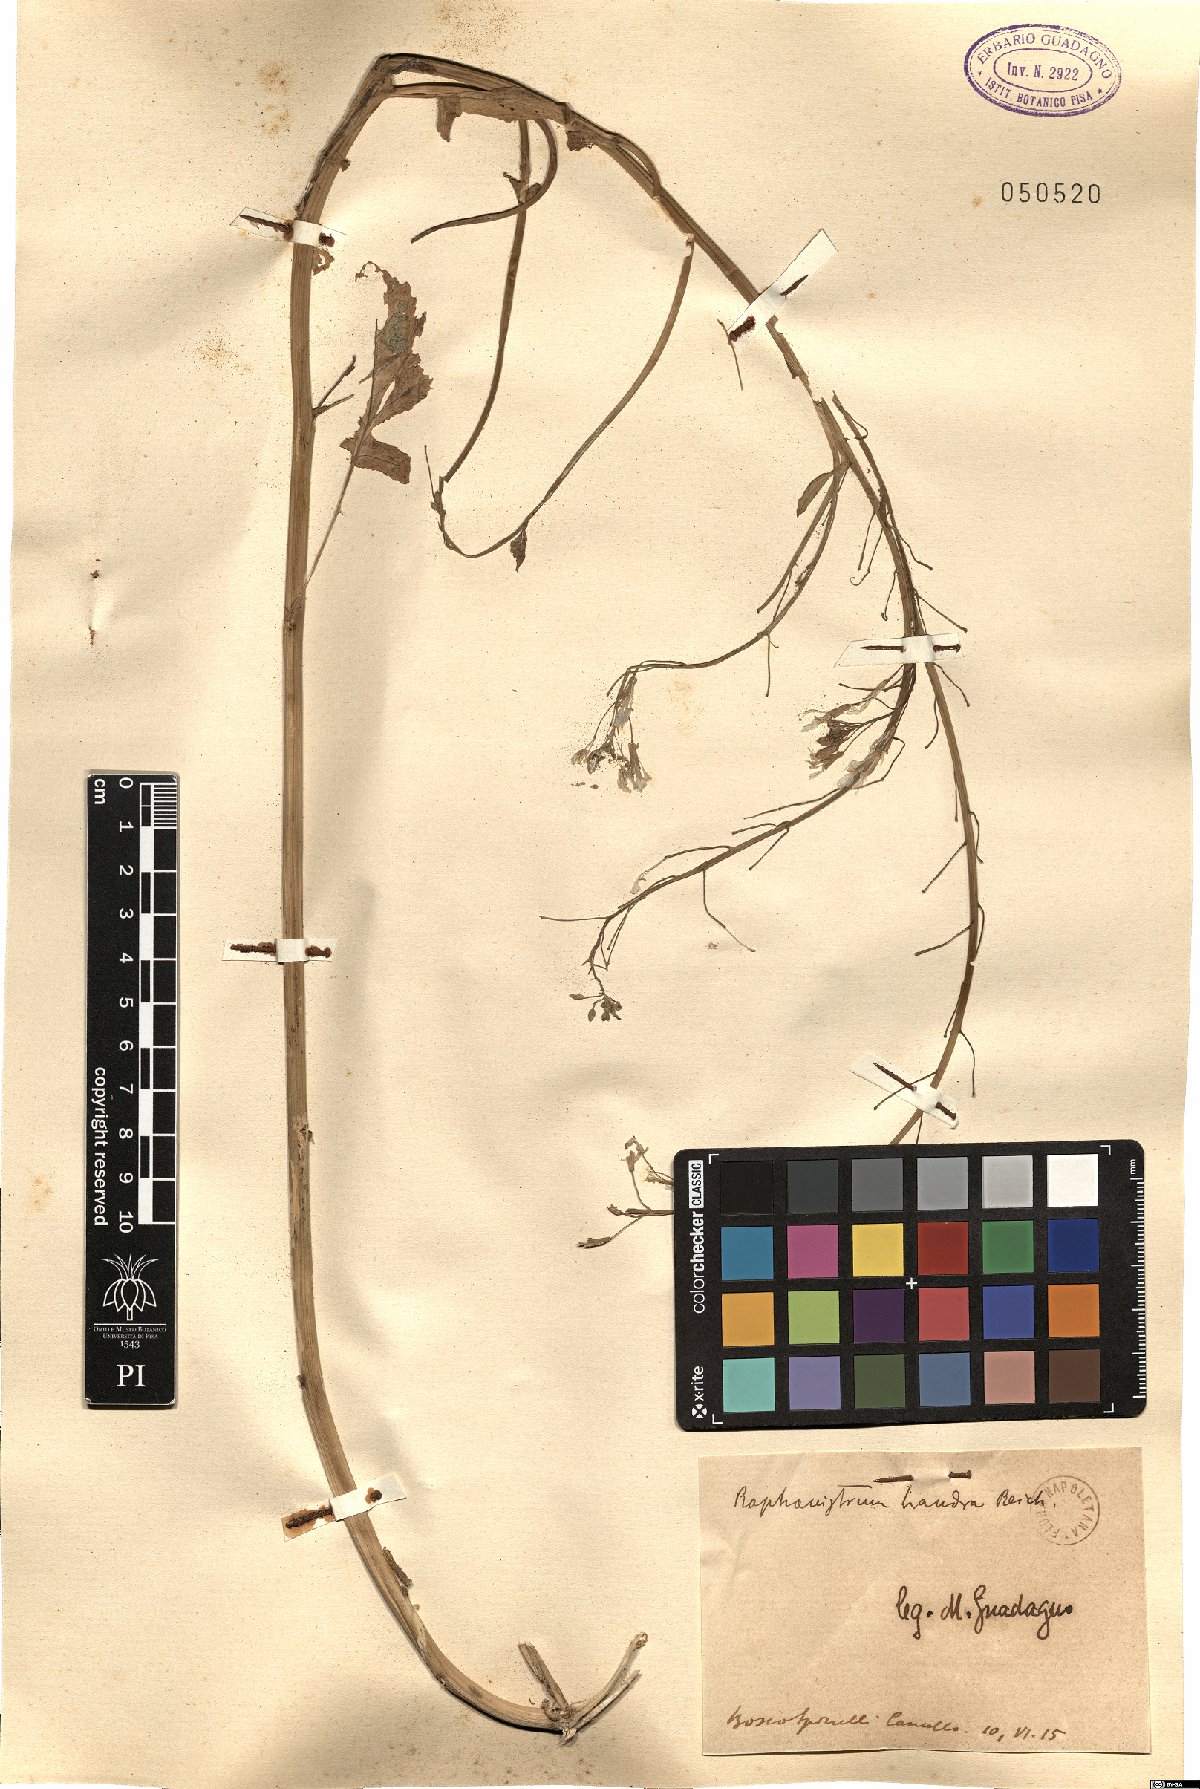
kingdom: Plantae
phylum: Tracheophyta
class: Magnoliopsida
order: Brassicales
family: Brassicaceae
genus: Raphanus
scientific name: Raphanus raphanistrum
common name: Wild radish
